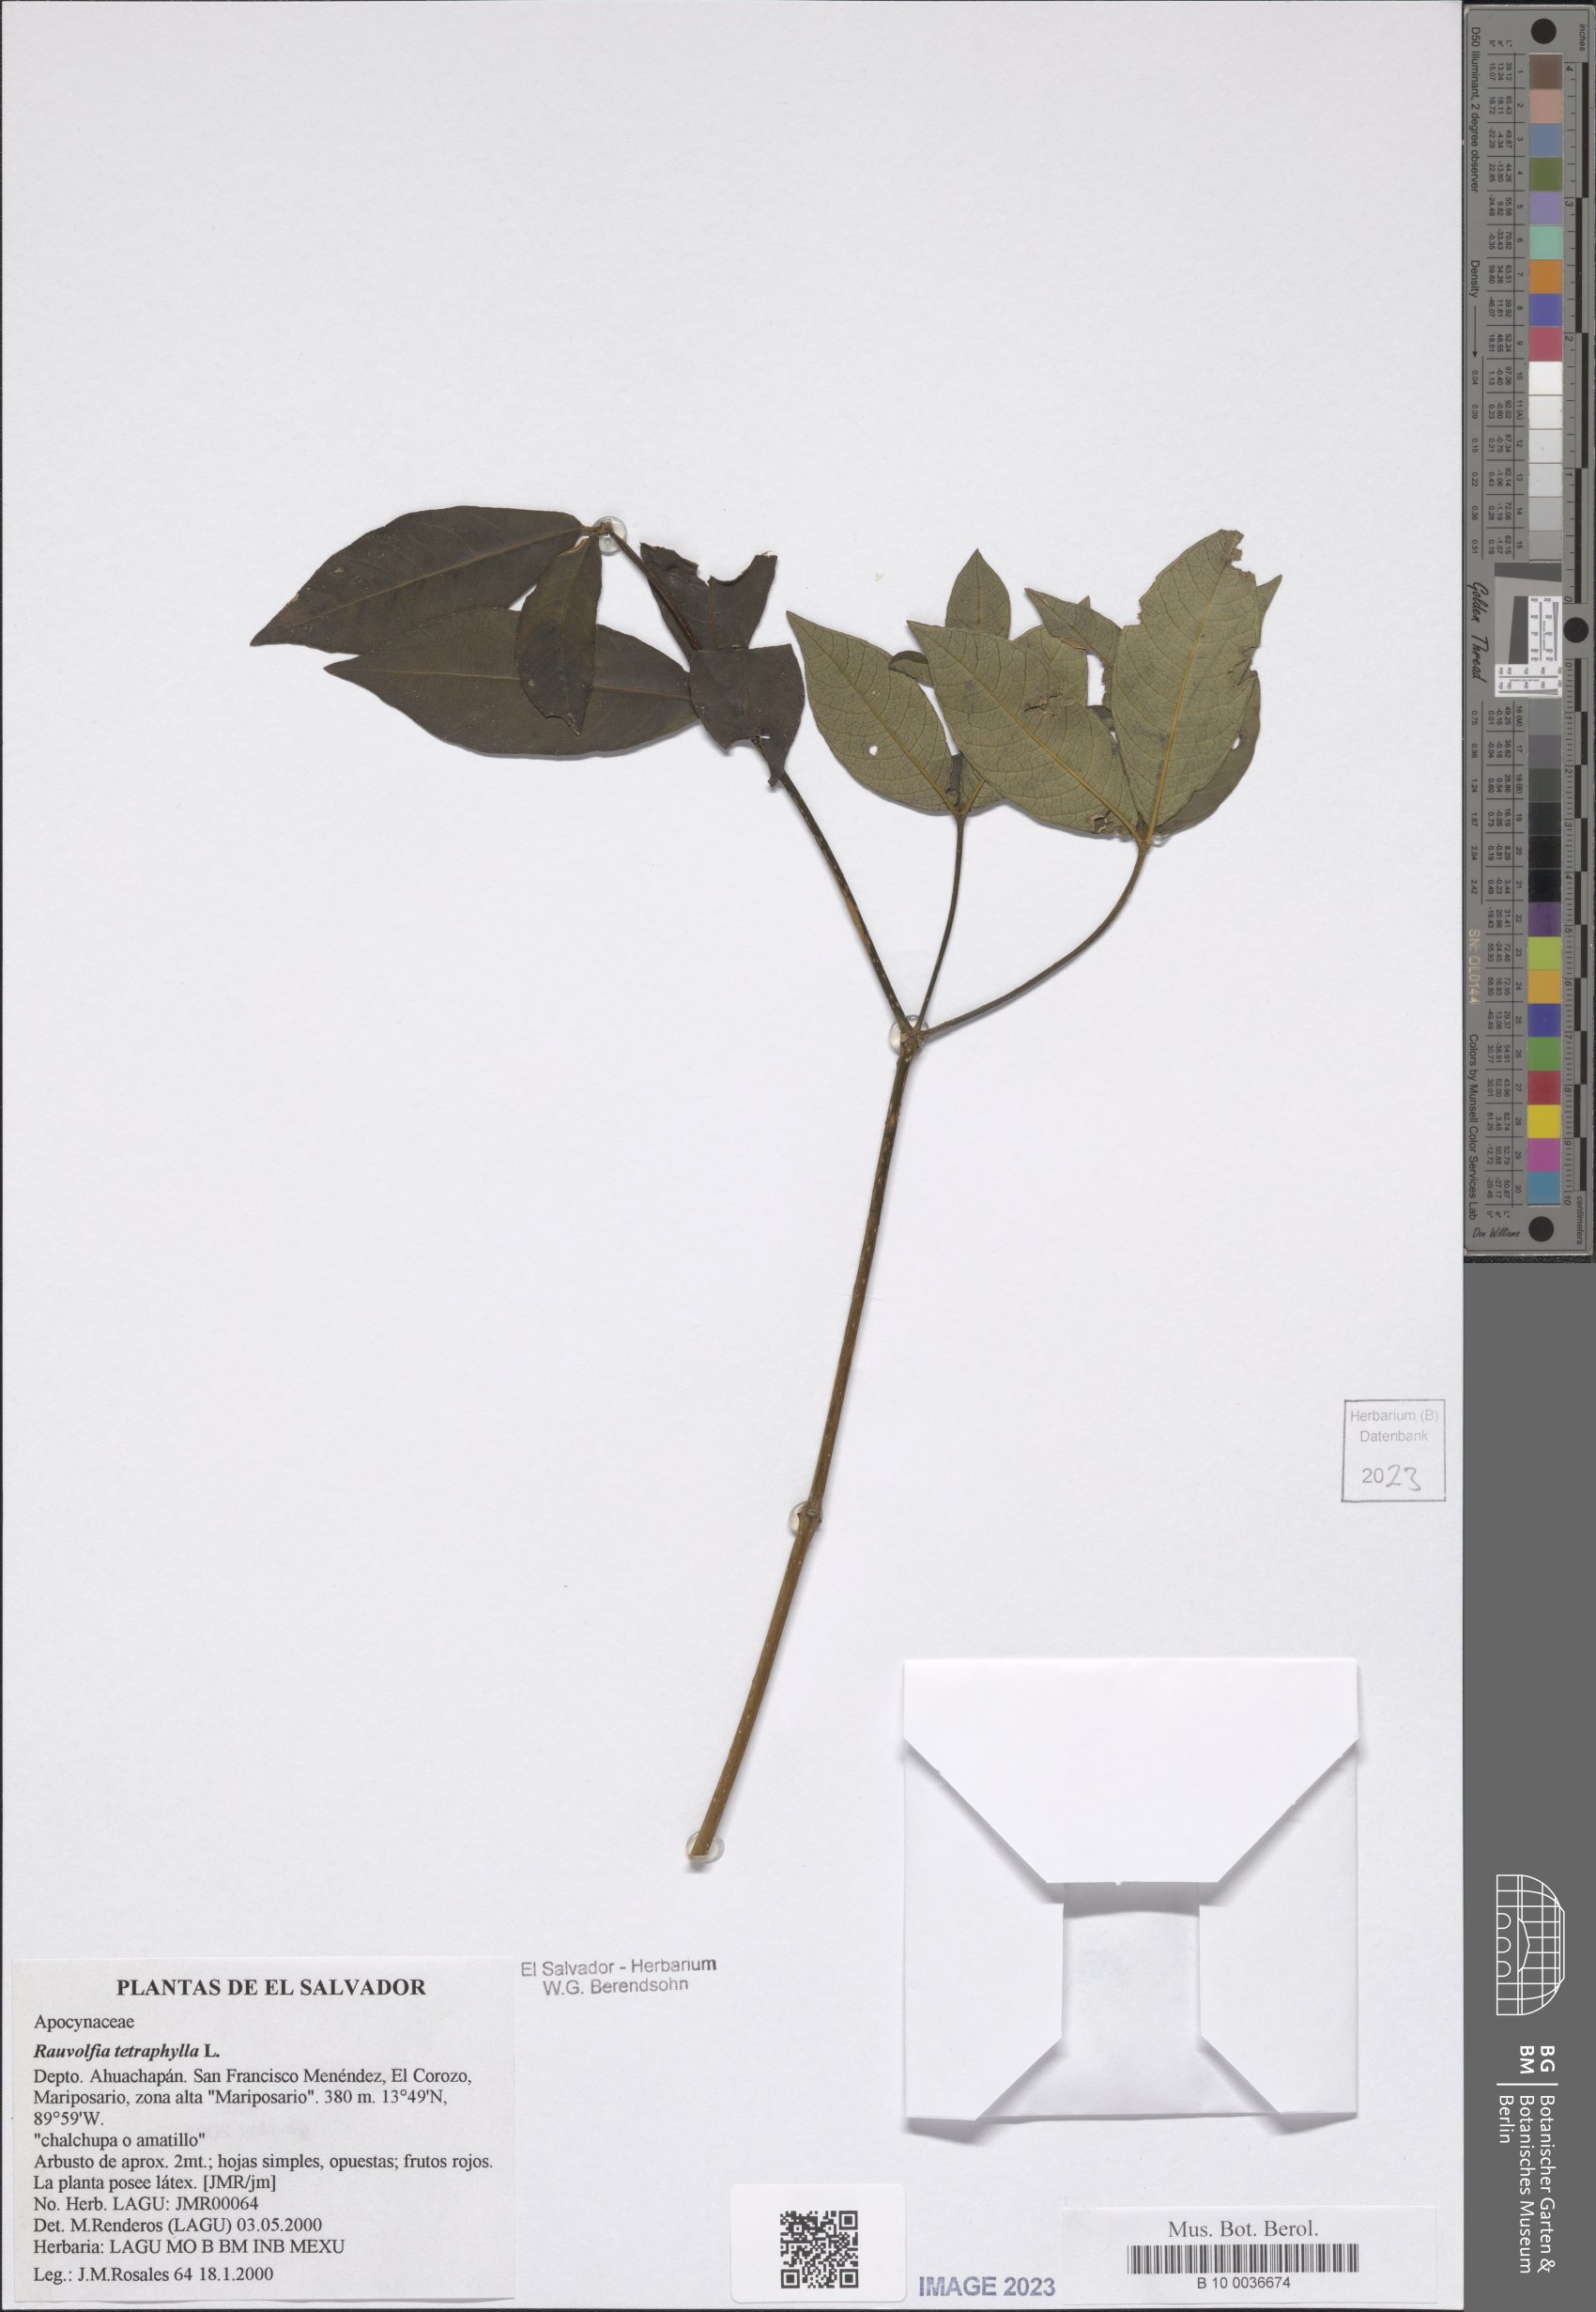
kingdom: Plantae
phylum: Tracheophyta
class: Magnoliopsida
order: Gentianales
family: Apocynaceae
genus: Rauvolfia
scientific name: Rauvolfia tetraphylla
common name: Four-leaf devil-pepper
